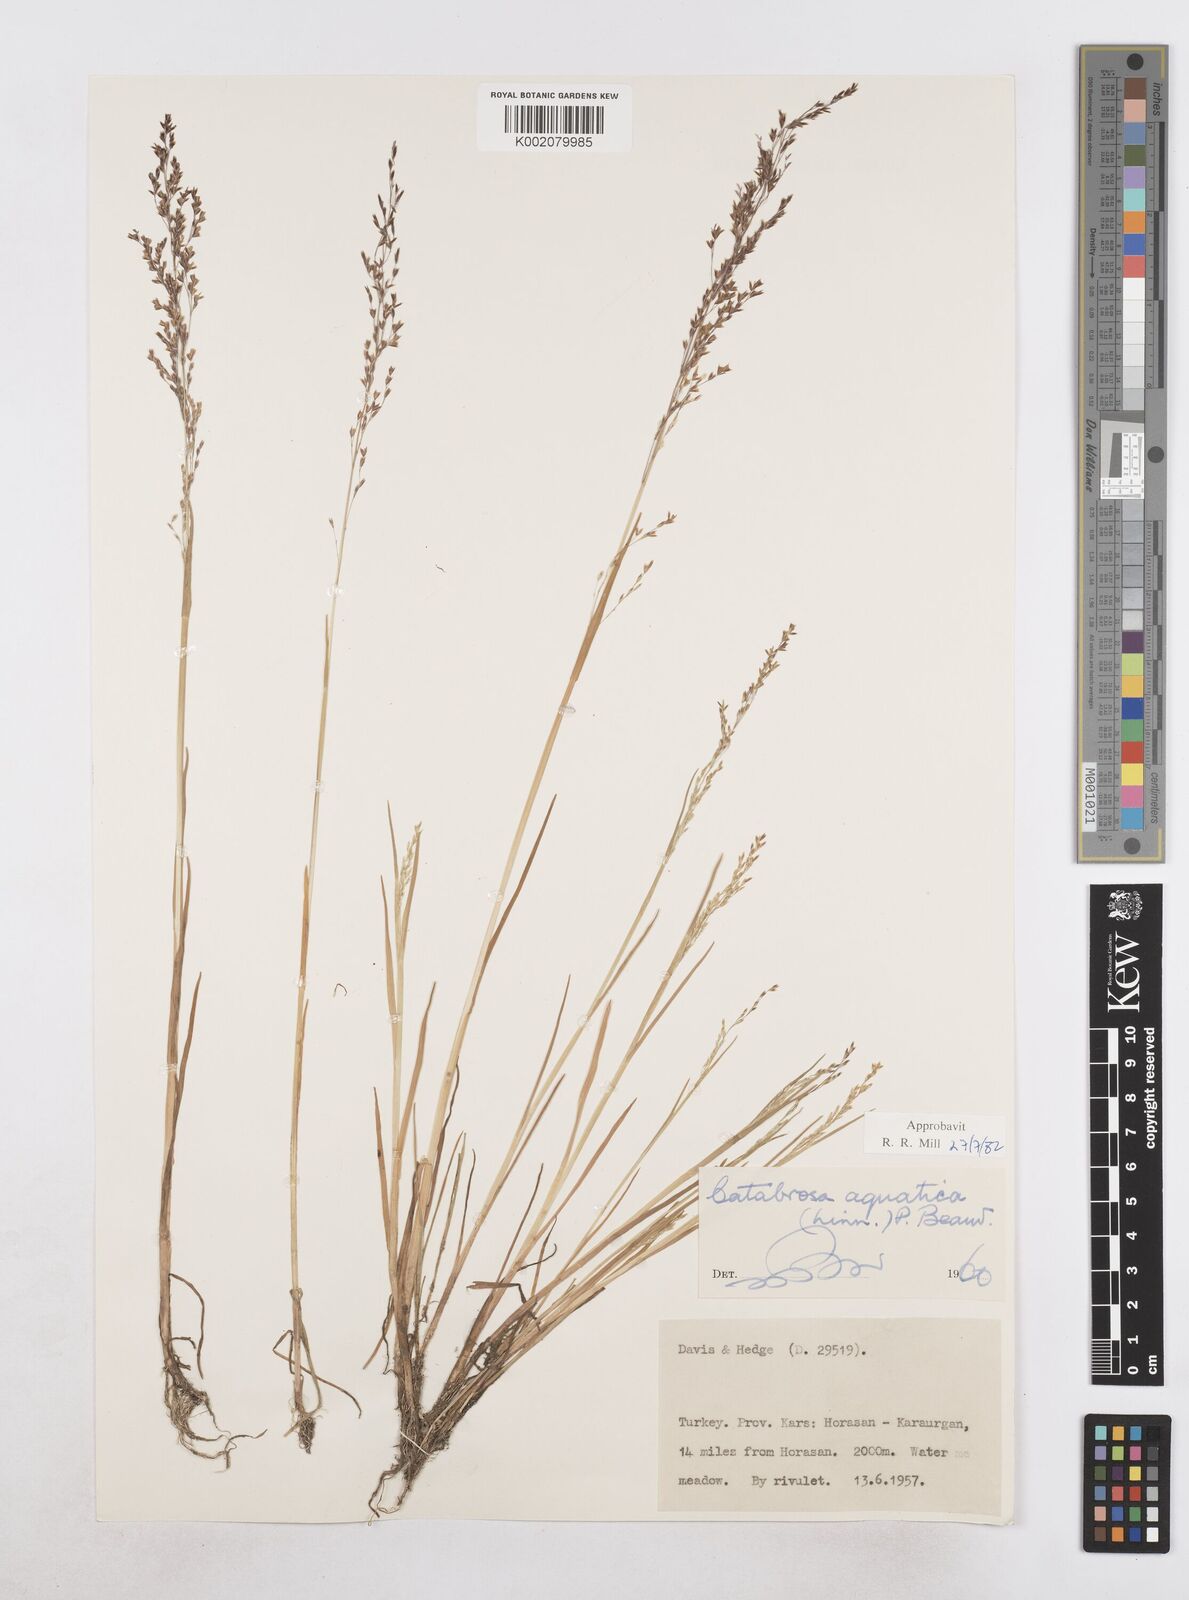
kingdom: Plantae
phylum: Tracheophyta
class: Liliopsida
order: Poales
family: Poaceae
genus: Catabrosa
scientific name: Catabrosa aquatica
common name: Whorl-grass
